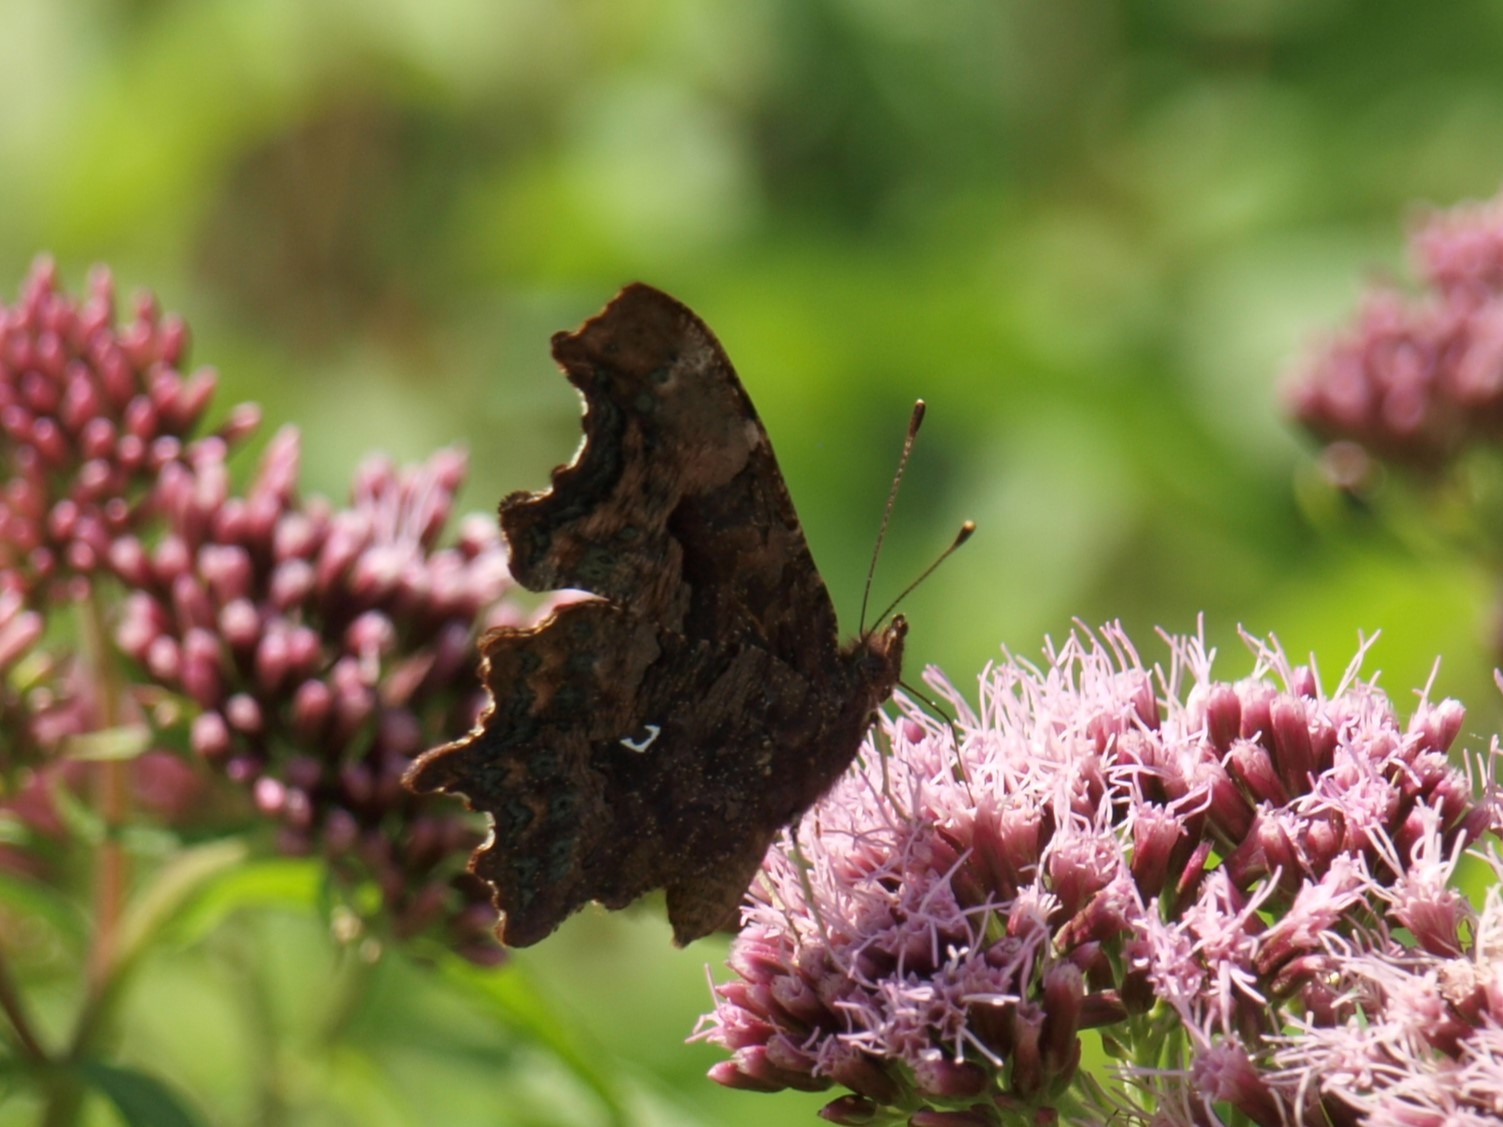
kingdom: Animalia
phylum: Arthropoda
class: Insecta
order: Lepidoptera
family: Nymphalidae
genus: Polygonia
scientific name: Polygonia c-album
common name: Det hvide C
